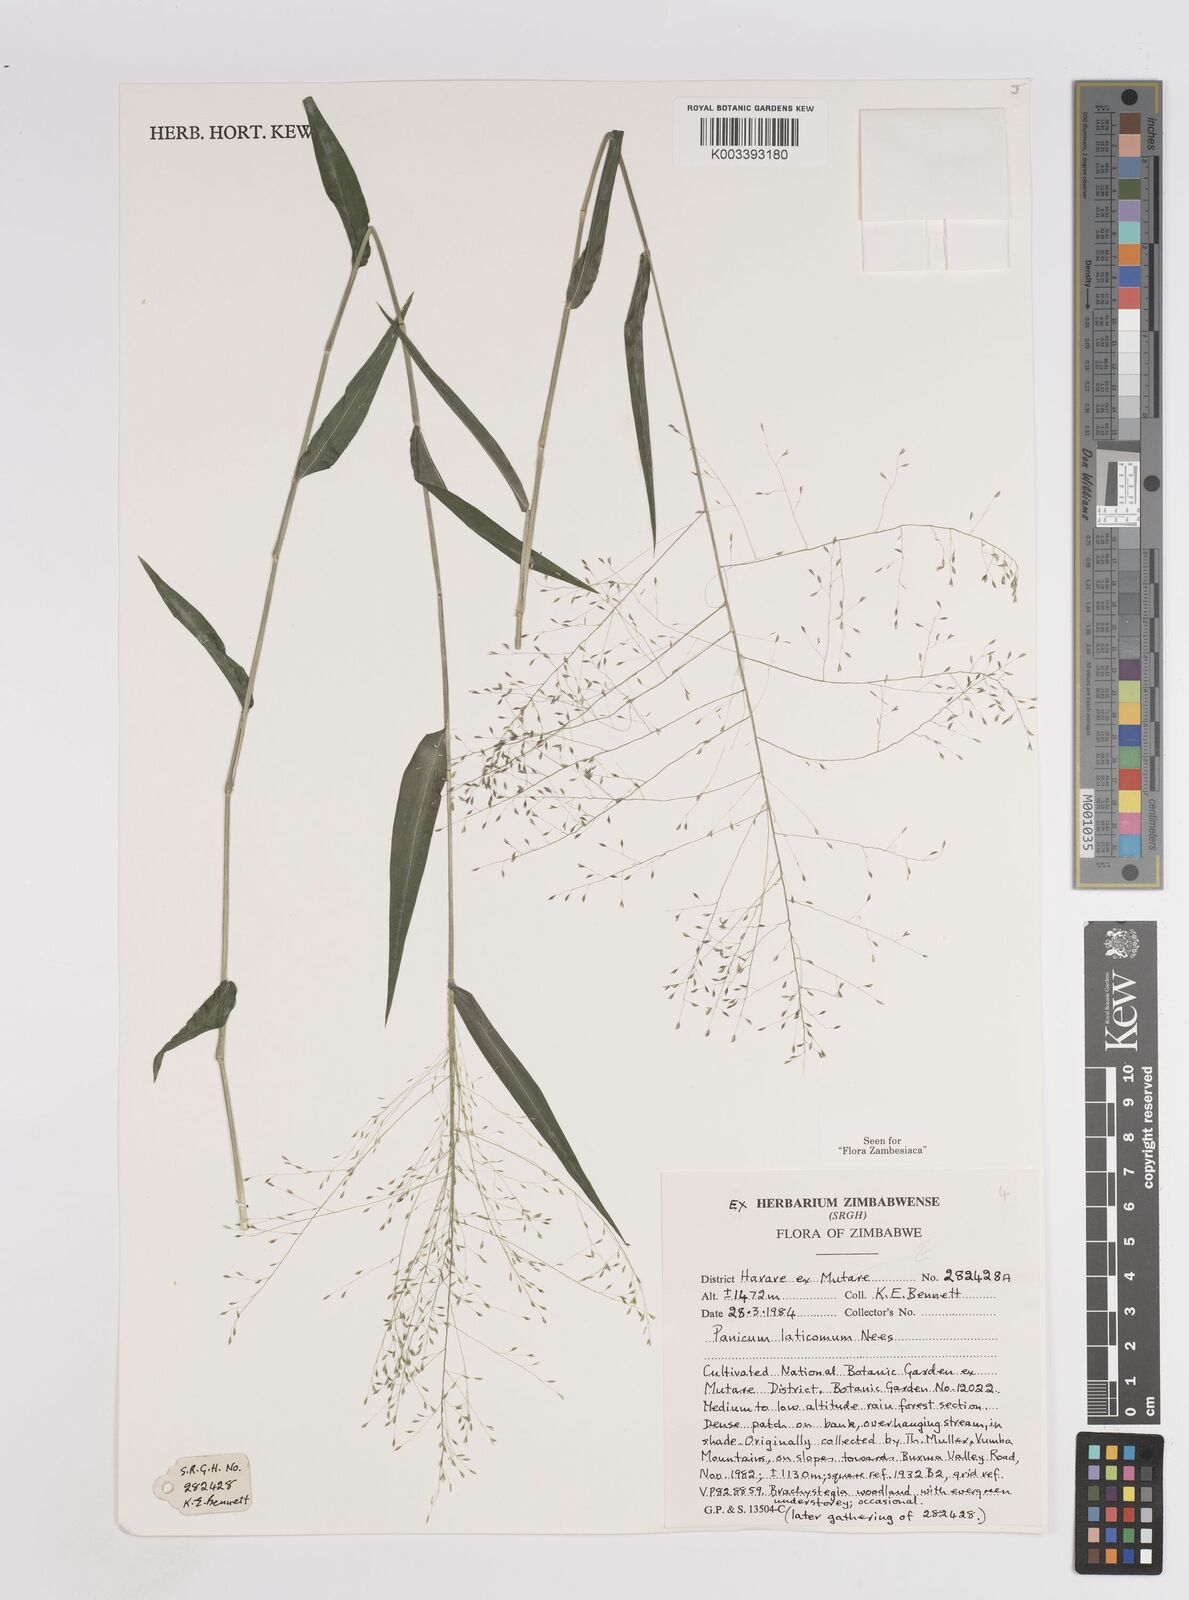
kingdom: Plantae
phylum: Tracheophyta
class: Liliopsida
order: Poales
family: Poaceae
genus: Panicum
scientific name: Panicum laticomum
